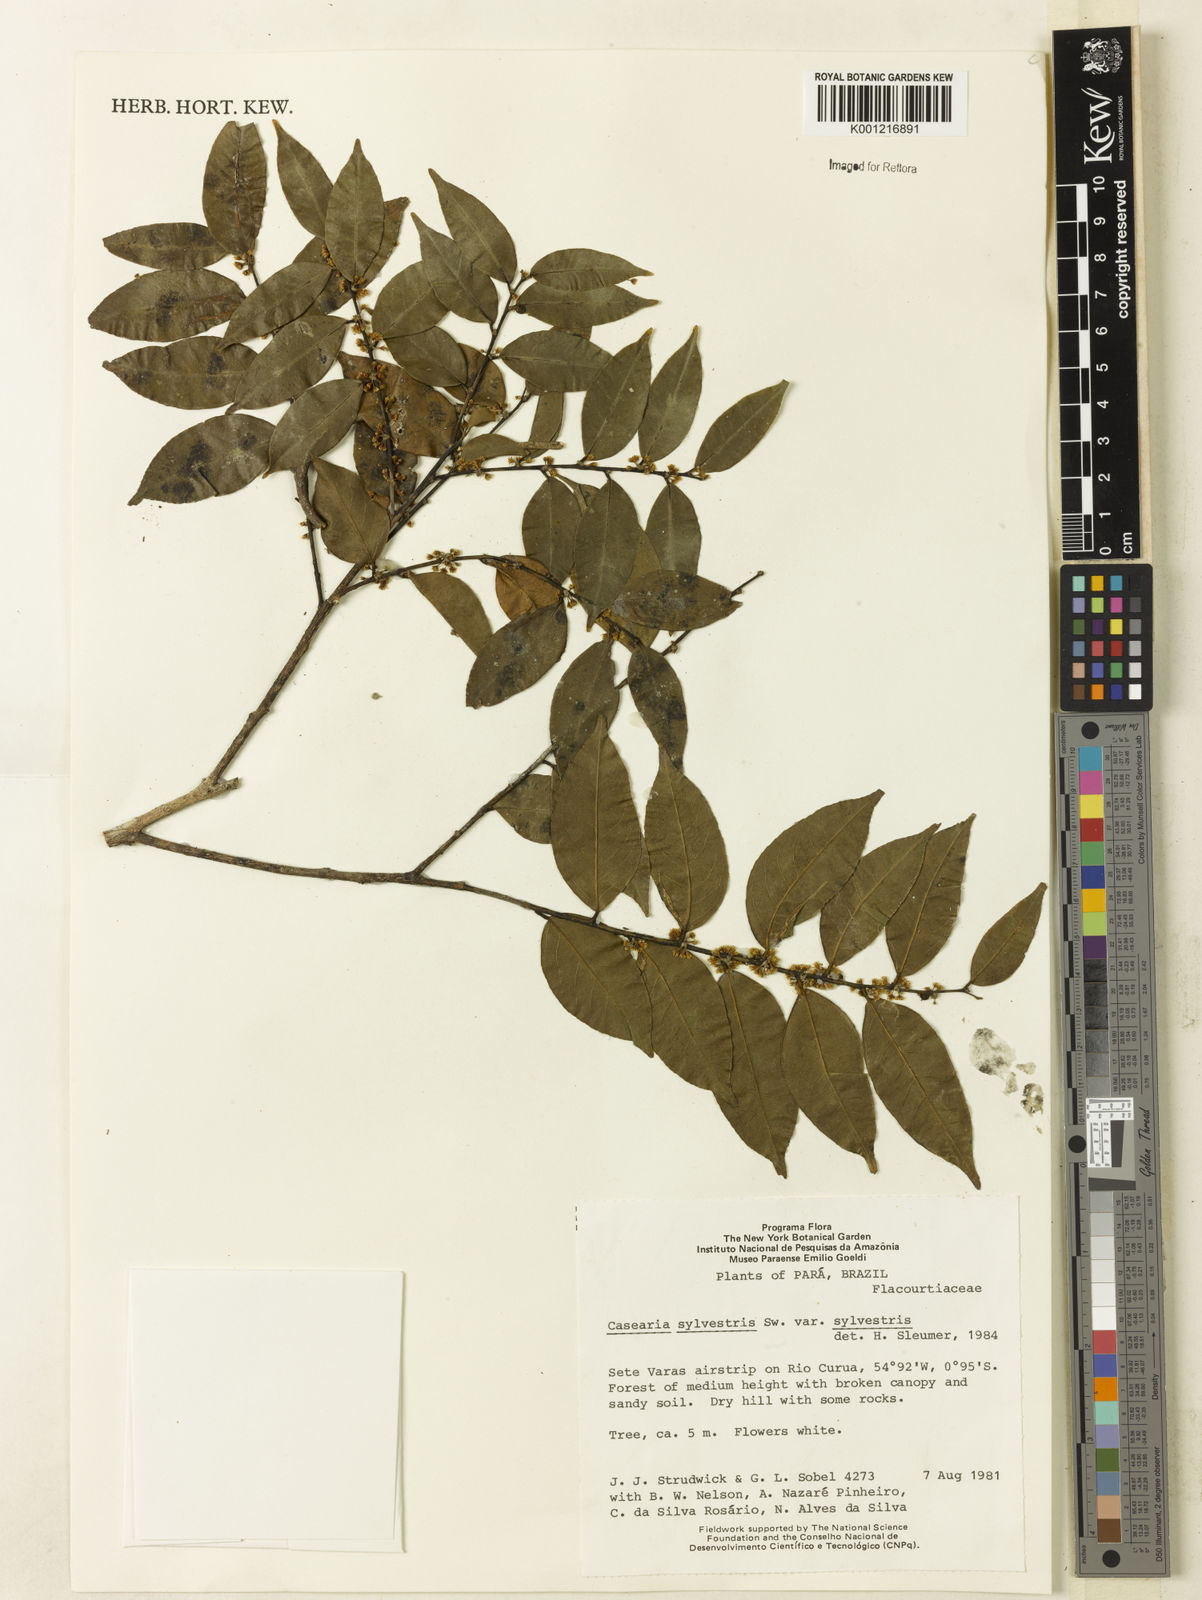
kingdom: Plantae
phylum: Tracheophyta
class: Magnoliopsida
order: Malpighiales
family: Salicaceae
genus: Casearia
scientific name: Casearia sylvestris
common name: Wild sage
